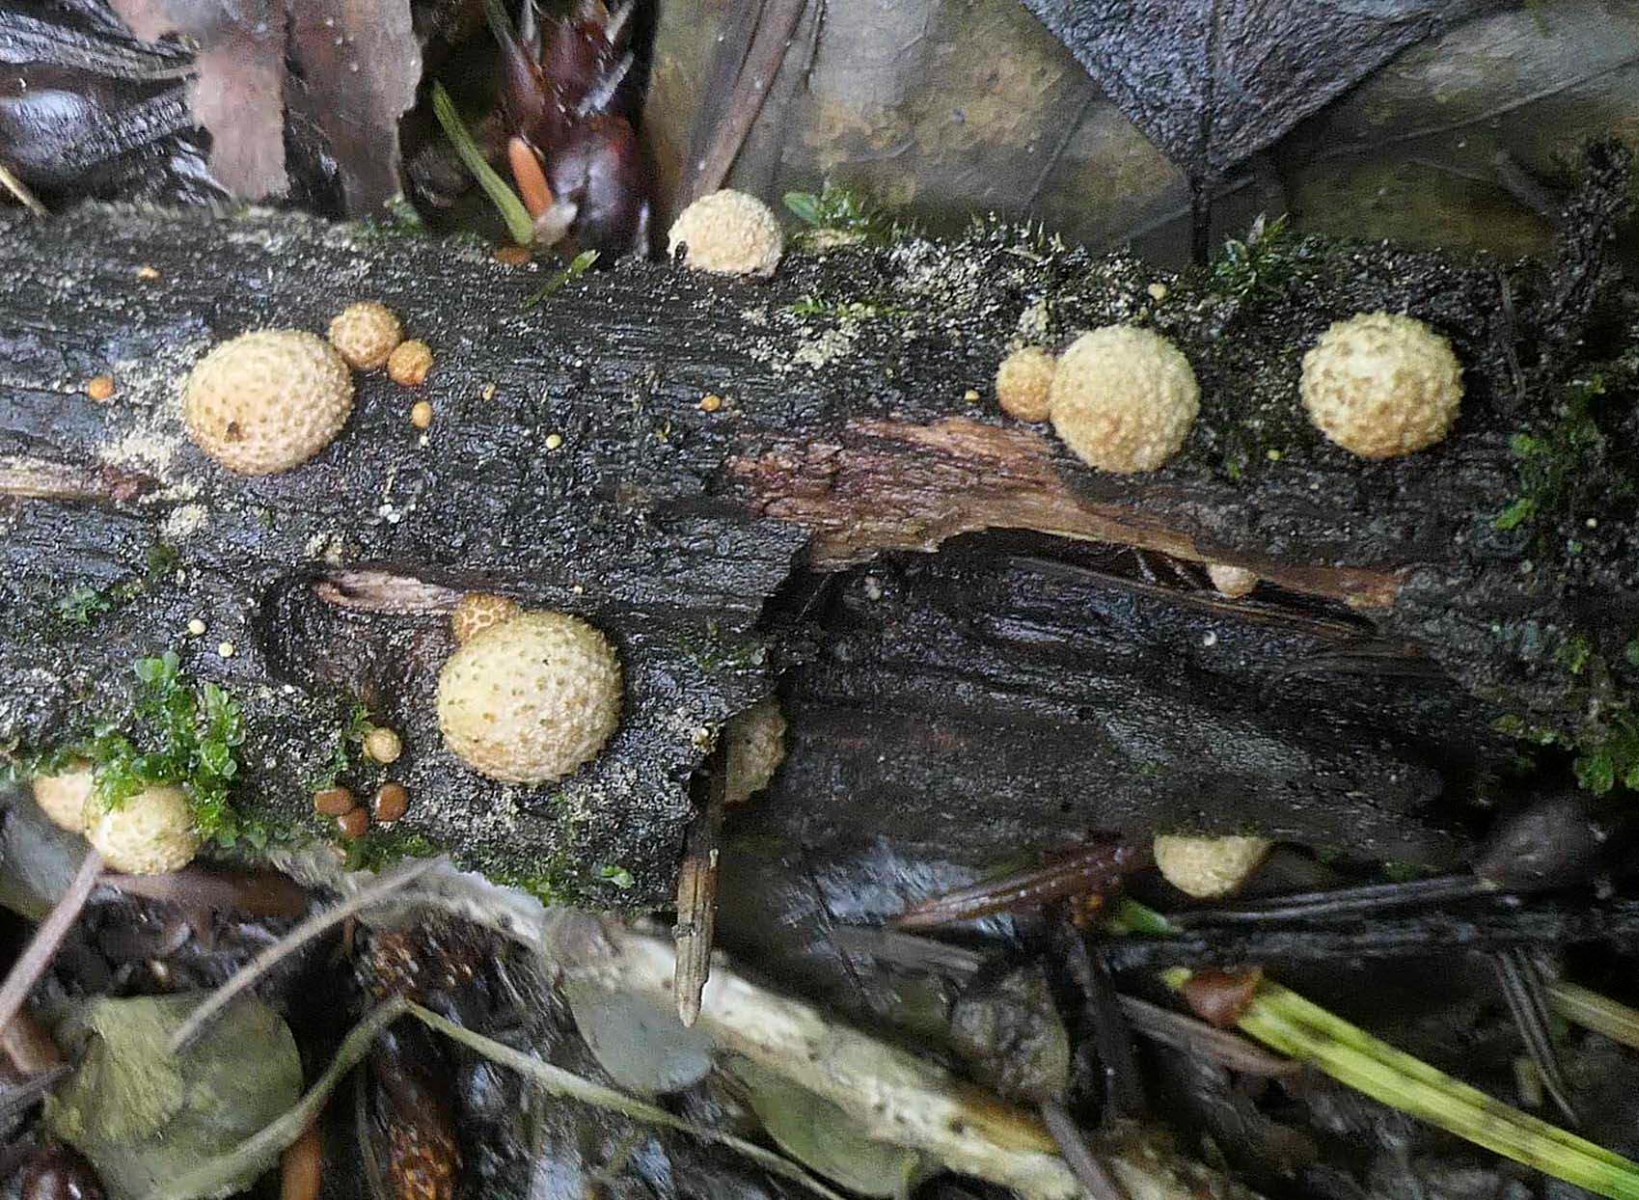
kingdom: Fungi
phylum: Basidiomycota
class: Agaricomycetes
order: Agaricales
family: Agaricaceae
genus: Nidularia
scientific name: Nidularia deformis
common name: pudesvamp
